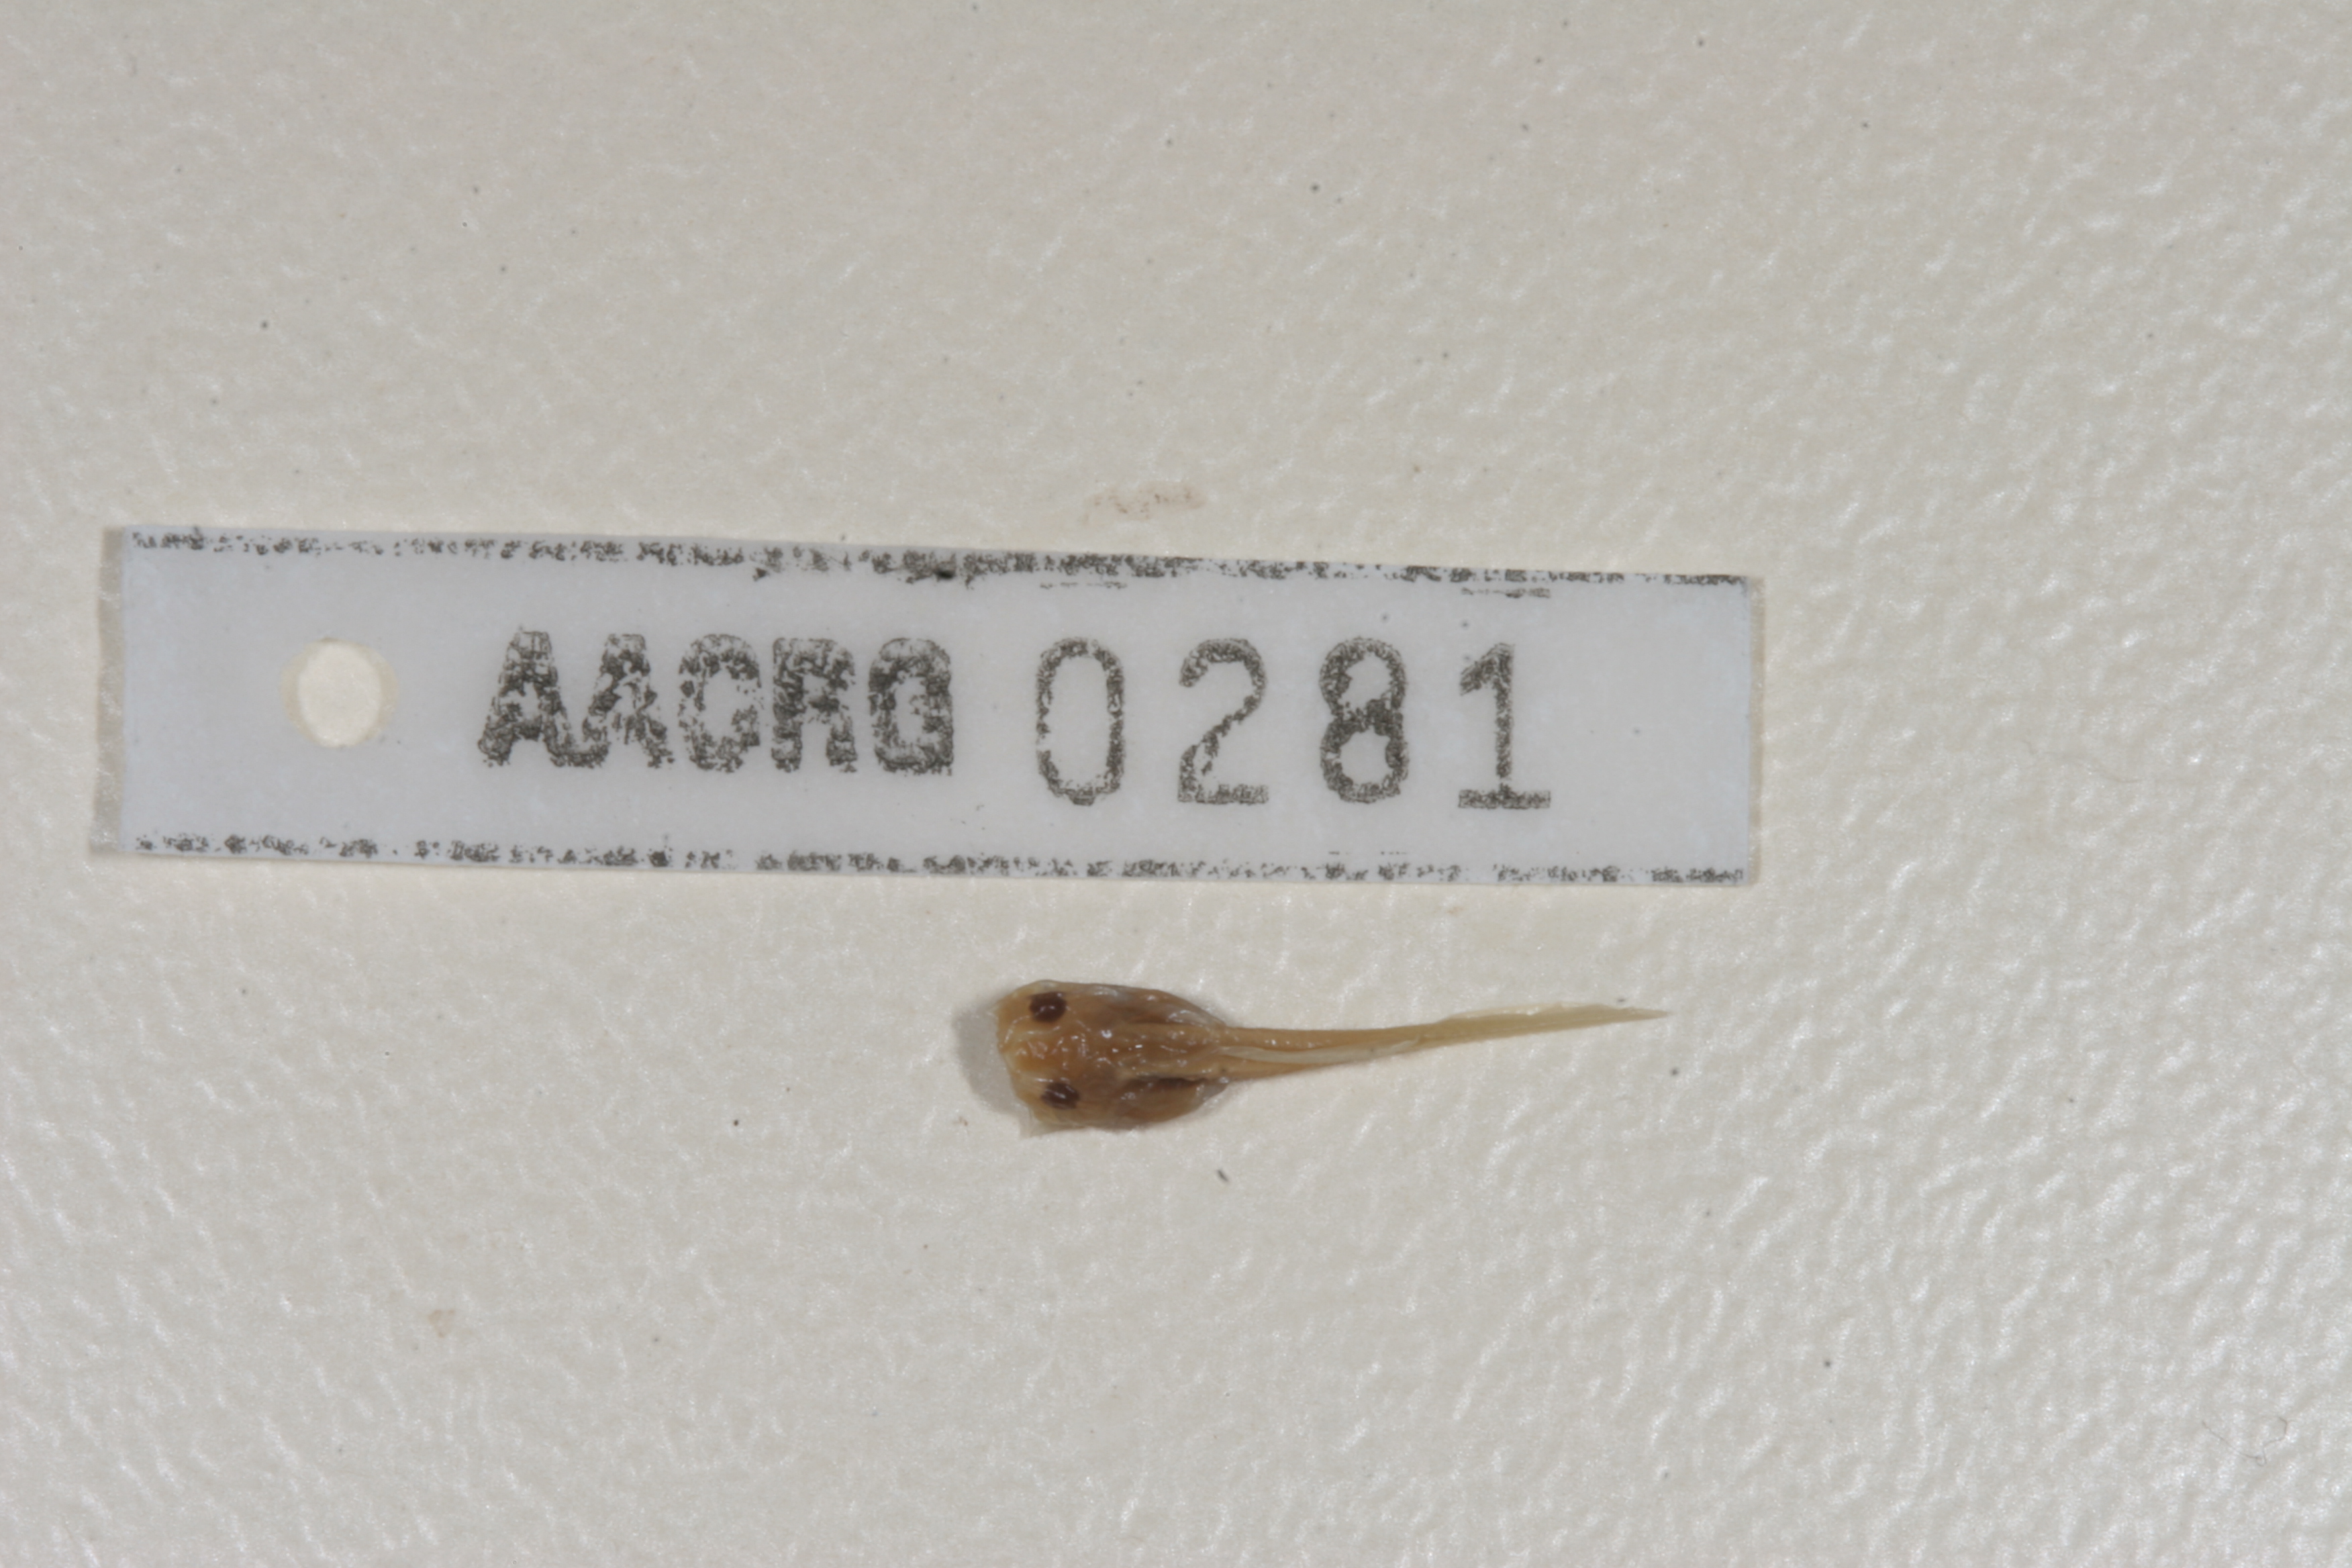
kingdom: Animalia
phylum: Chordata
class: Amphibia
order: Anura
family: Pyxicephalidae
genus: Cacosternum
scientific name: Cacosternum boettgeri
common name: Boettger's frog
